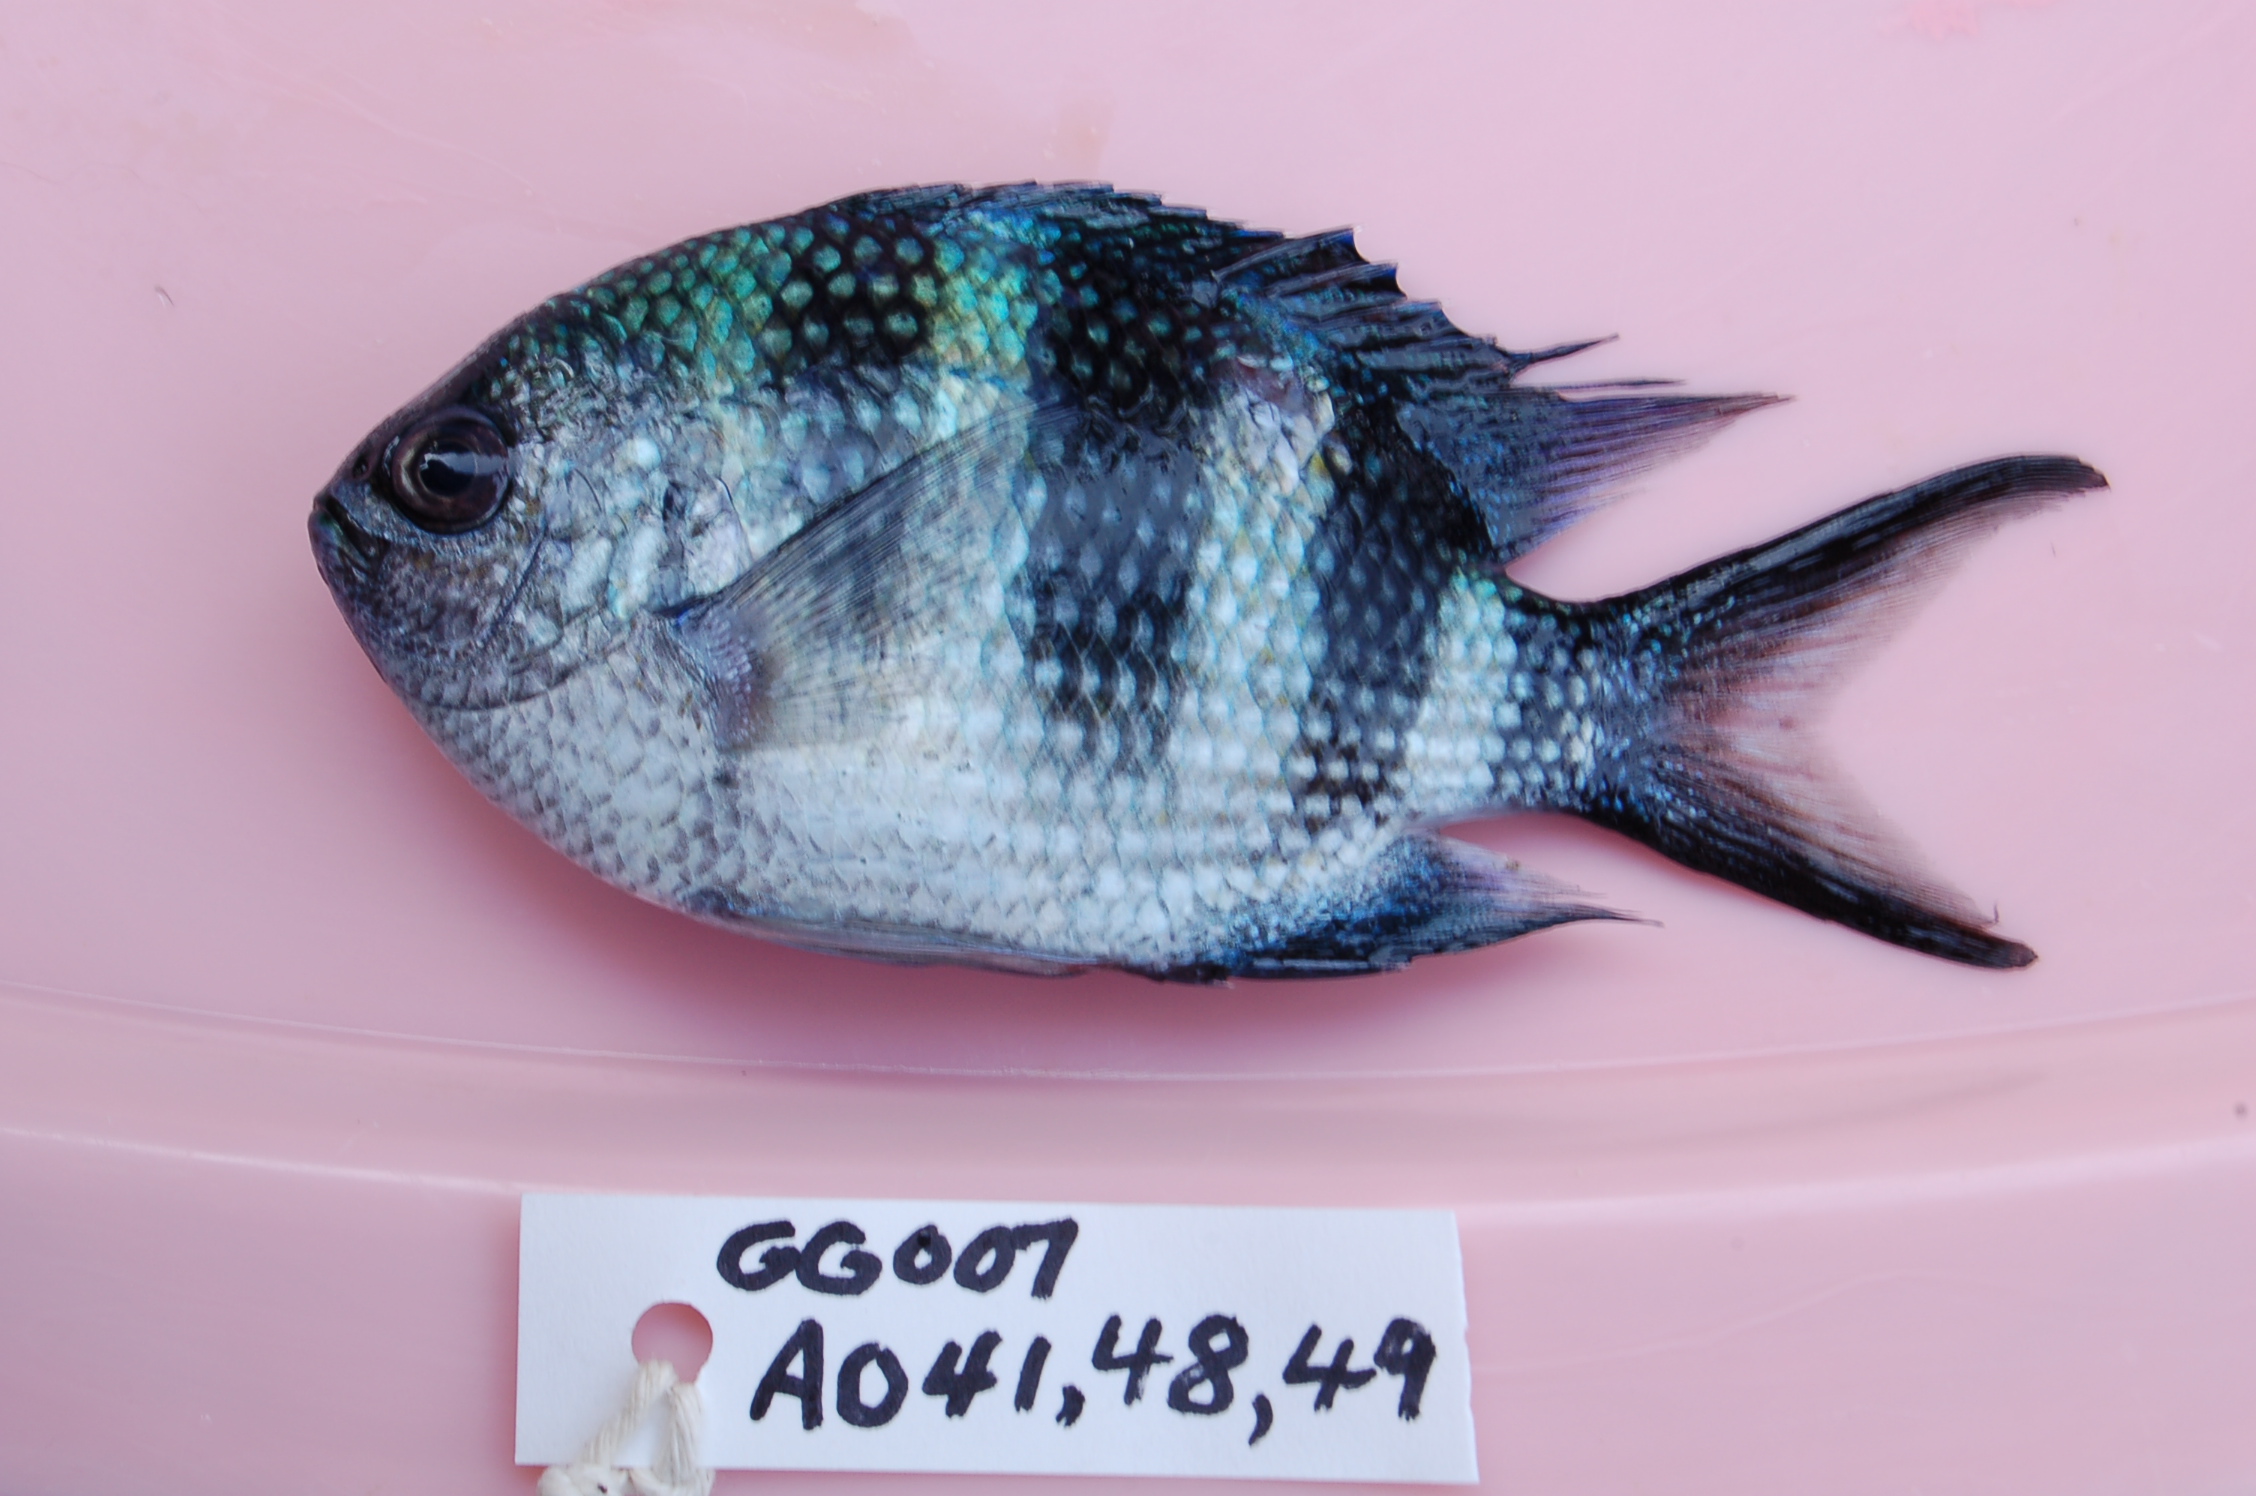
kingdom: Animalia
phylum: Chordata
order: Perciformes
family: Pomacentridae
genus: Abudefduf
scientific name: Abudefduf natalensis
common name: Natal sergeant
